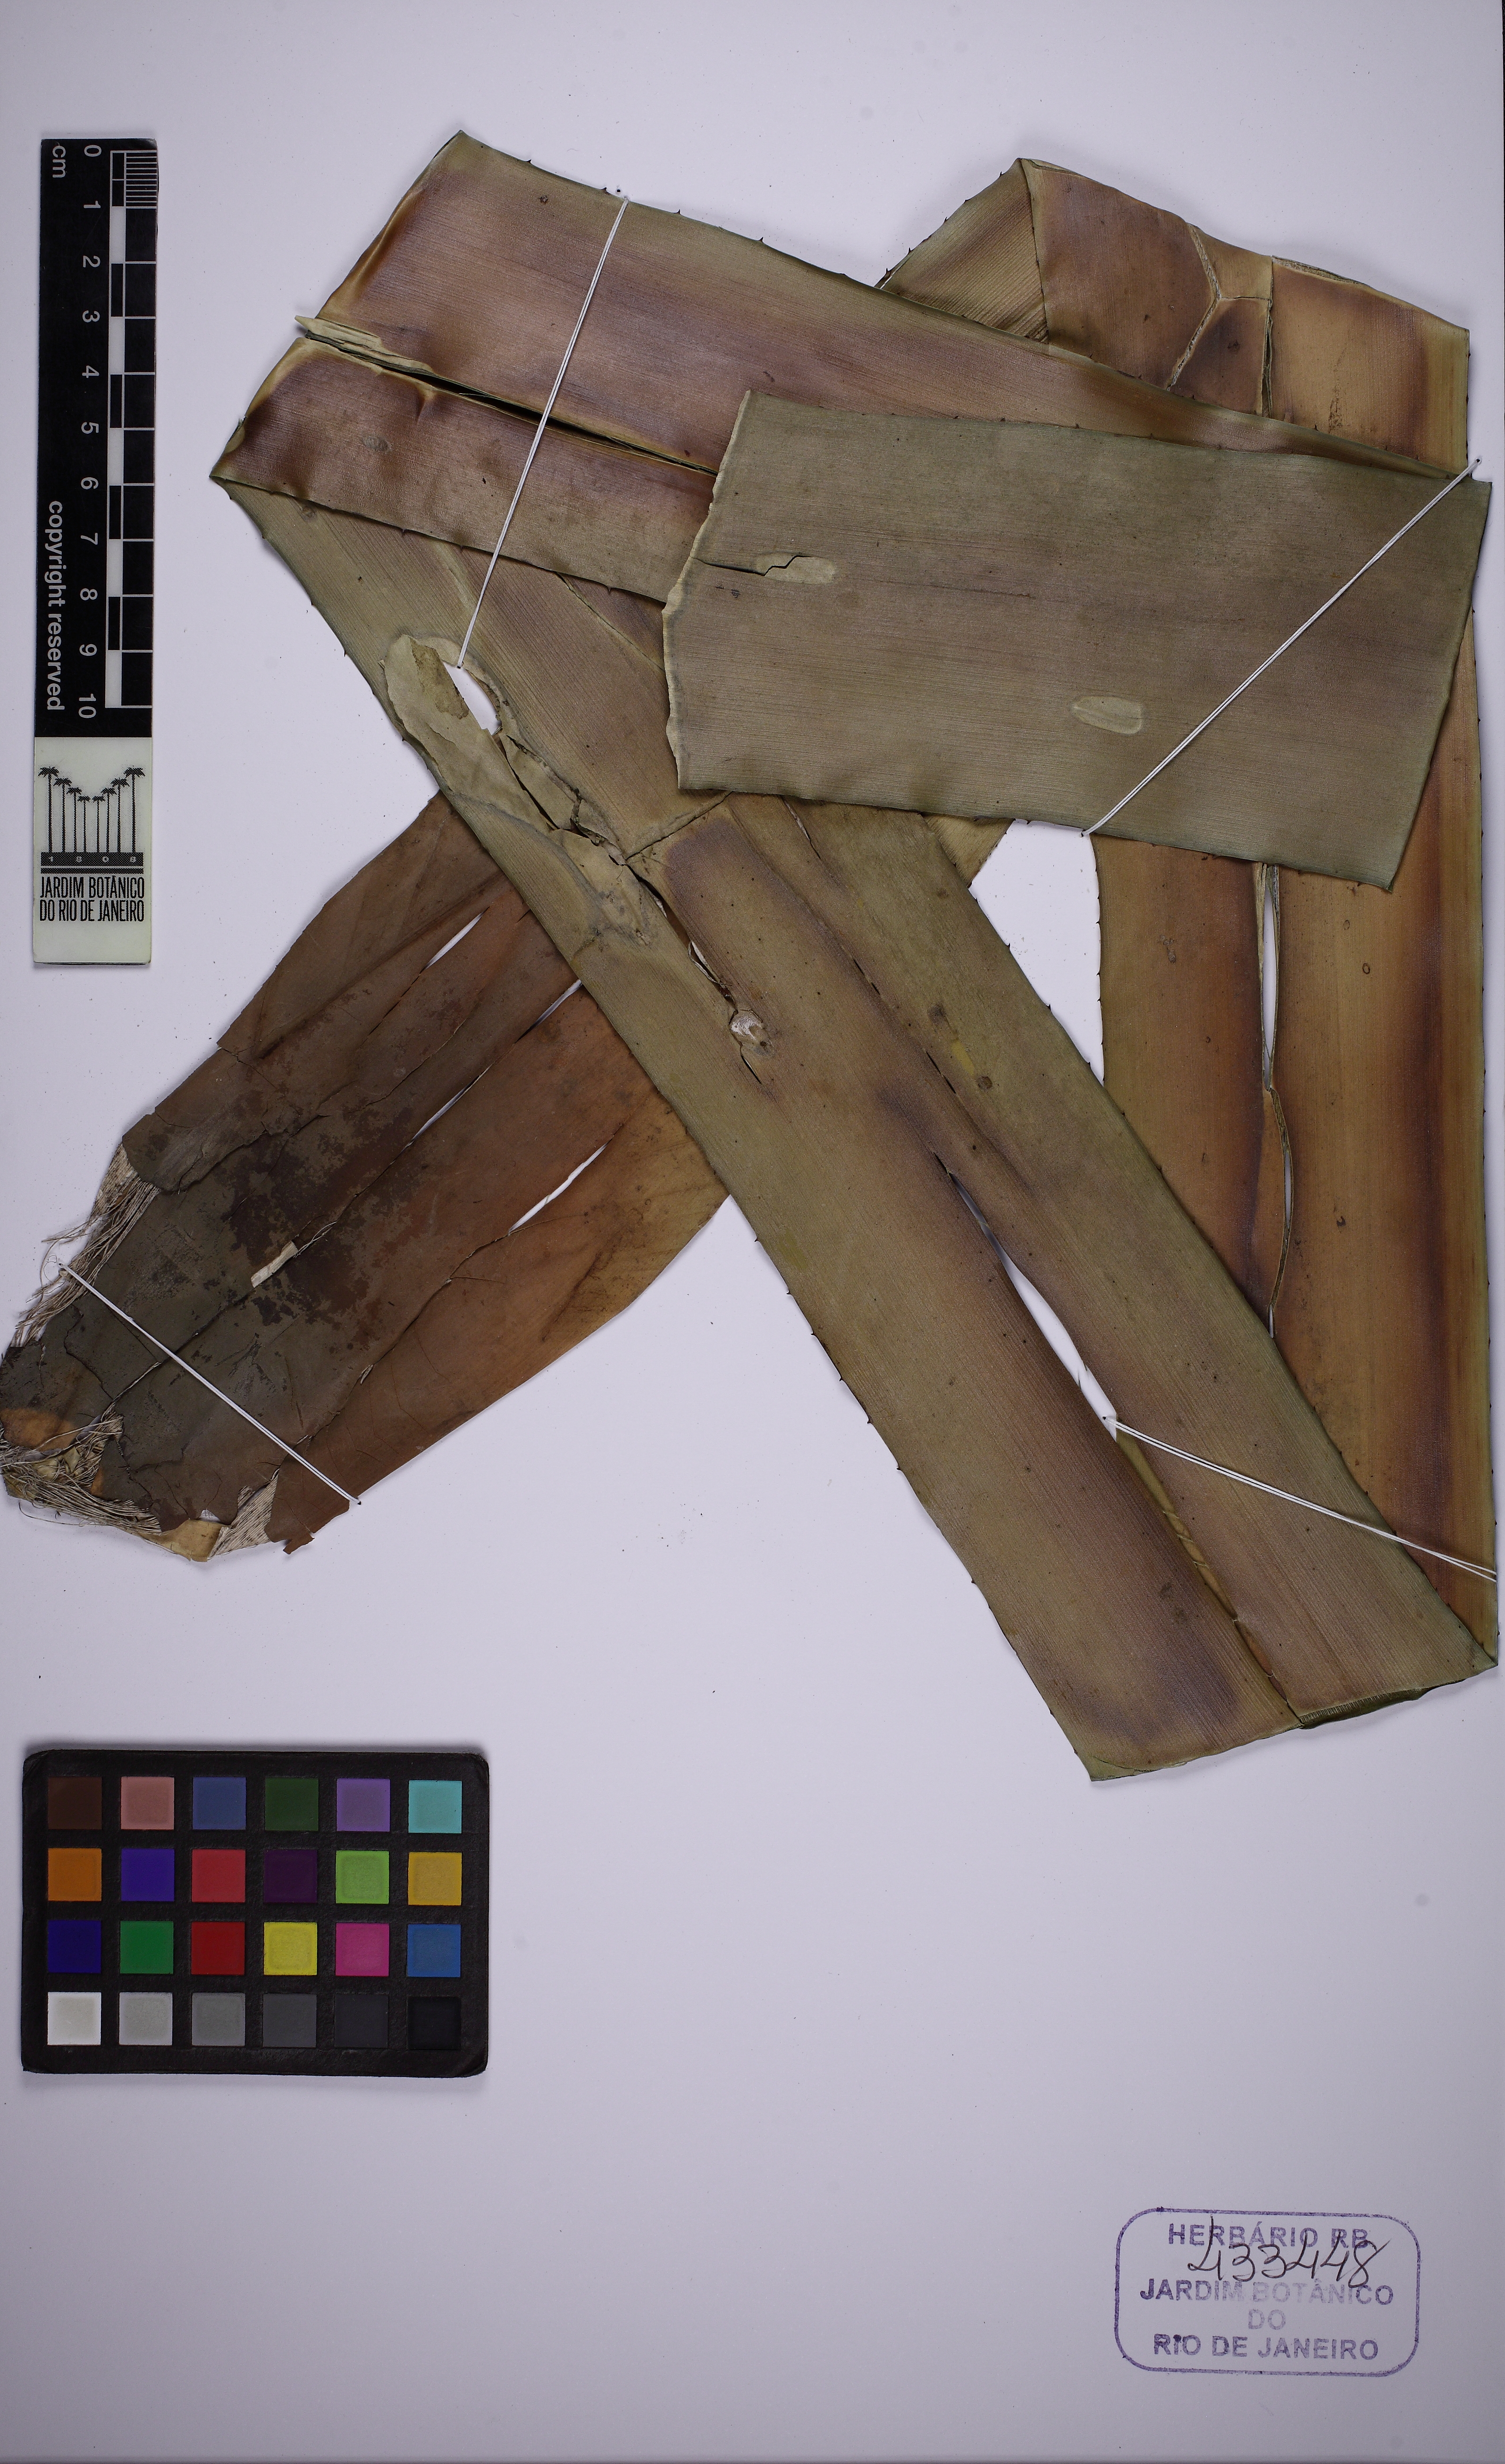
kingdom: Plantae
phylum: Tracheophyta
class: Liliopsida
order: Poales
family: Bromeliaceae
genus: Wittmackia
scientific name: Wittmackia lingulata
